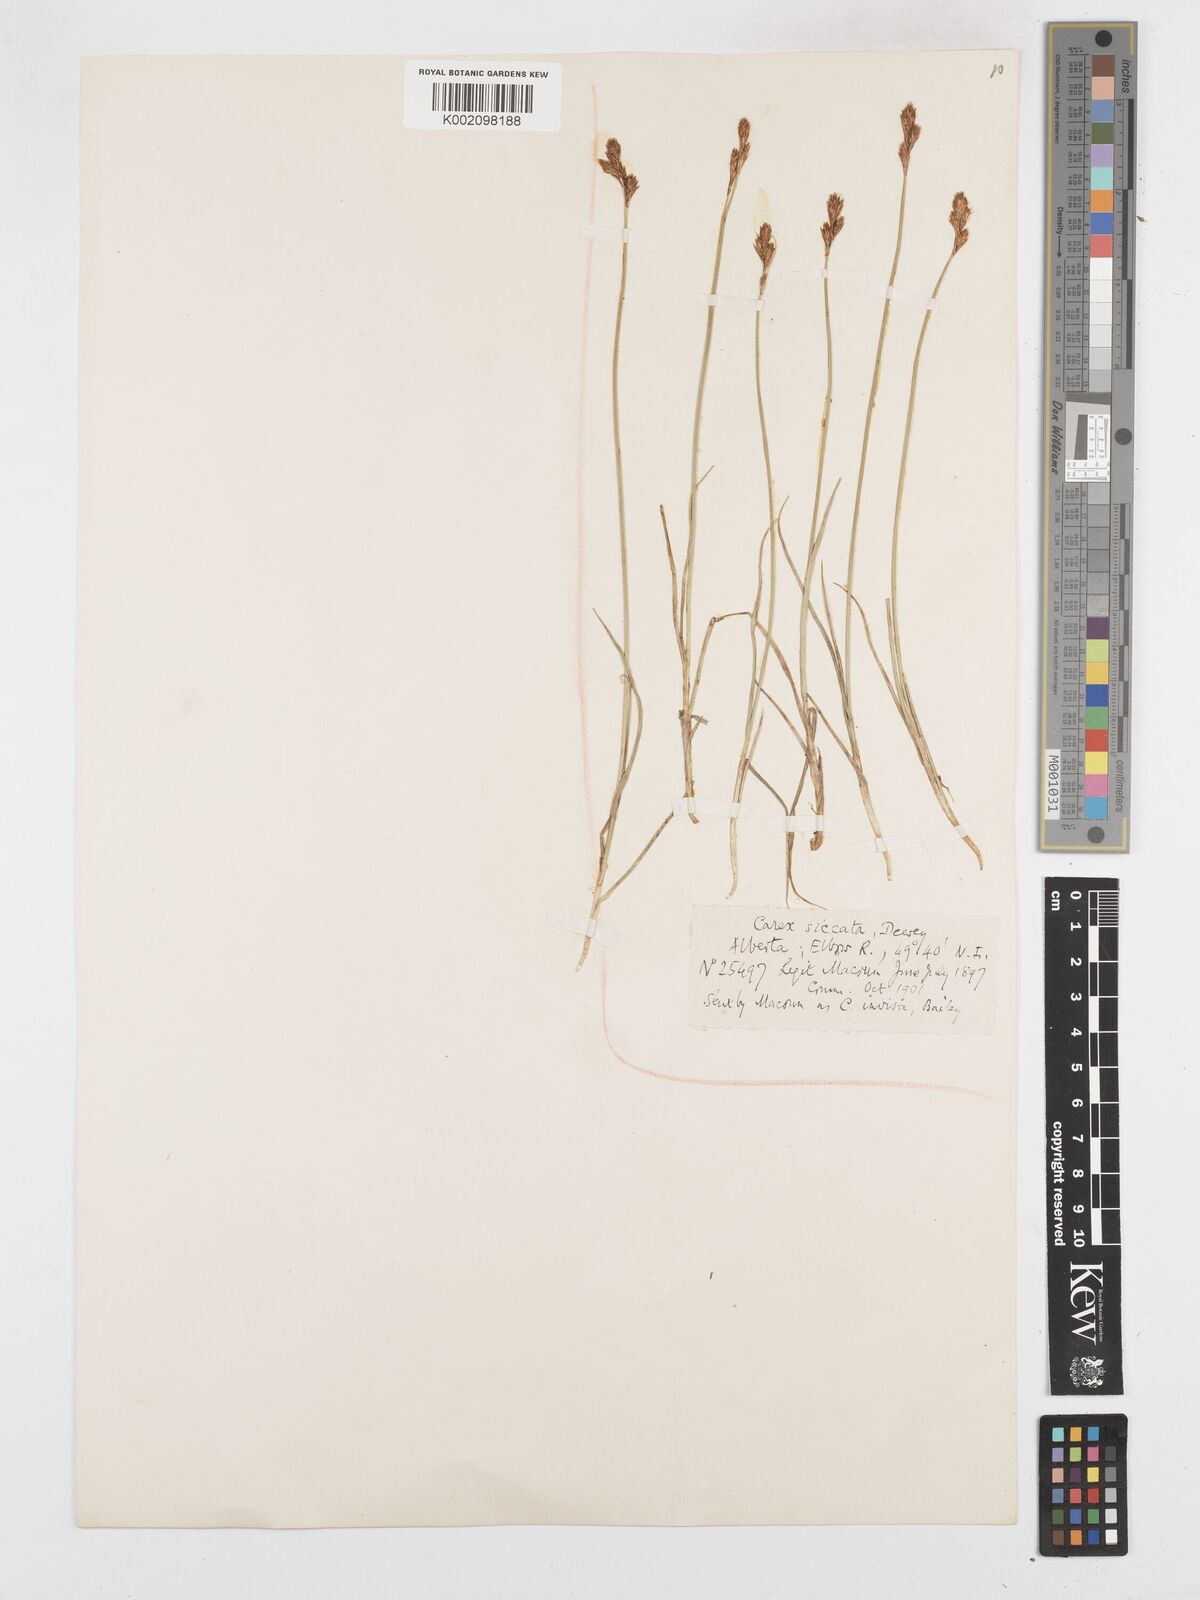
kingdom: Plantae
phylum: Tracheophyta
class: Liliopsida
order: Poales
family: Cyperaceae
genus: Carex
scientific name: Carex foenea
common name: Bronze sedge
